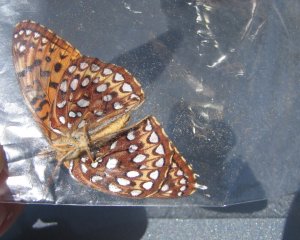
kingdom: Animalia
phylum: Arthropoda
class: Insecta
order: Lepidoptera
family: Nymphalidae
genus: Speyeria
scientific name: Speyeria atlantis
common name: Atlantis Fritillary
